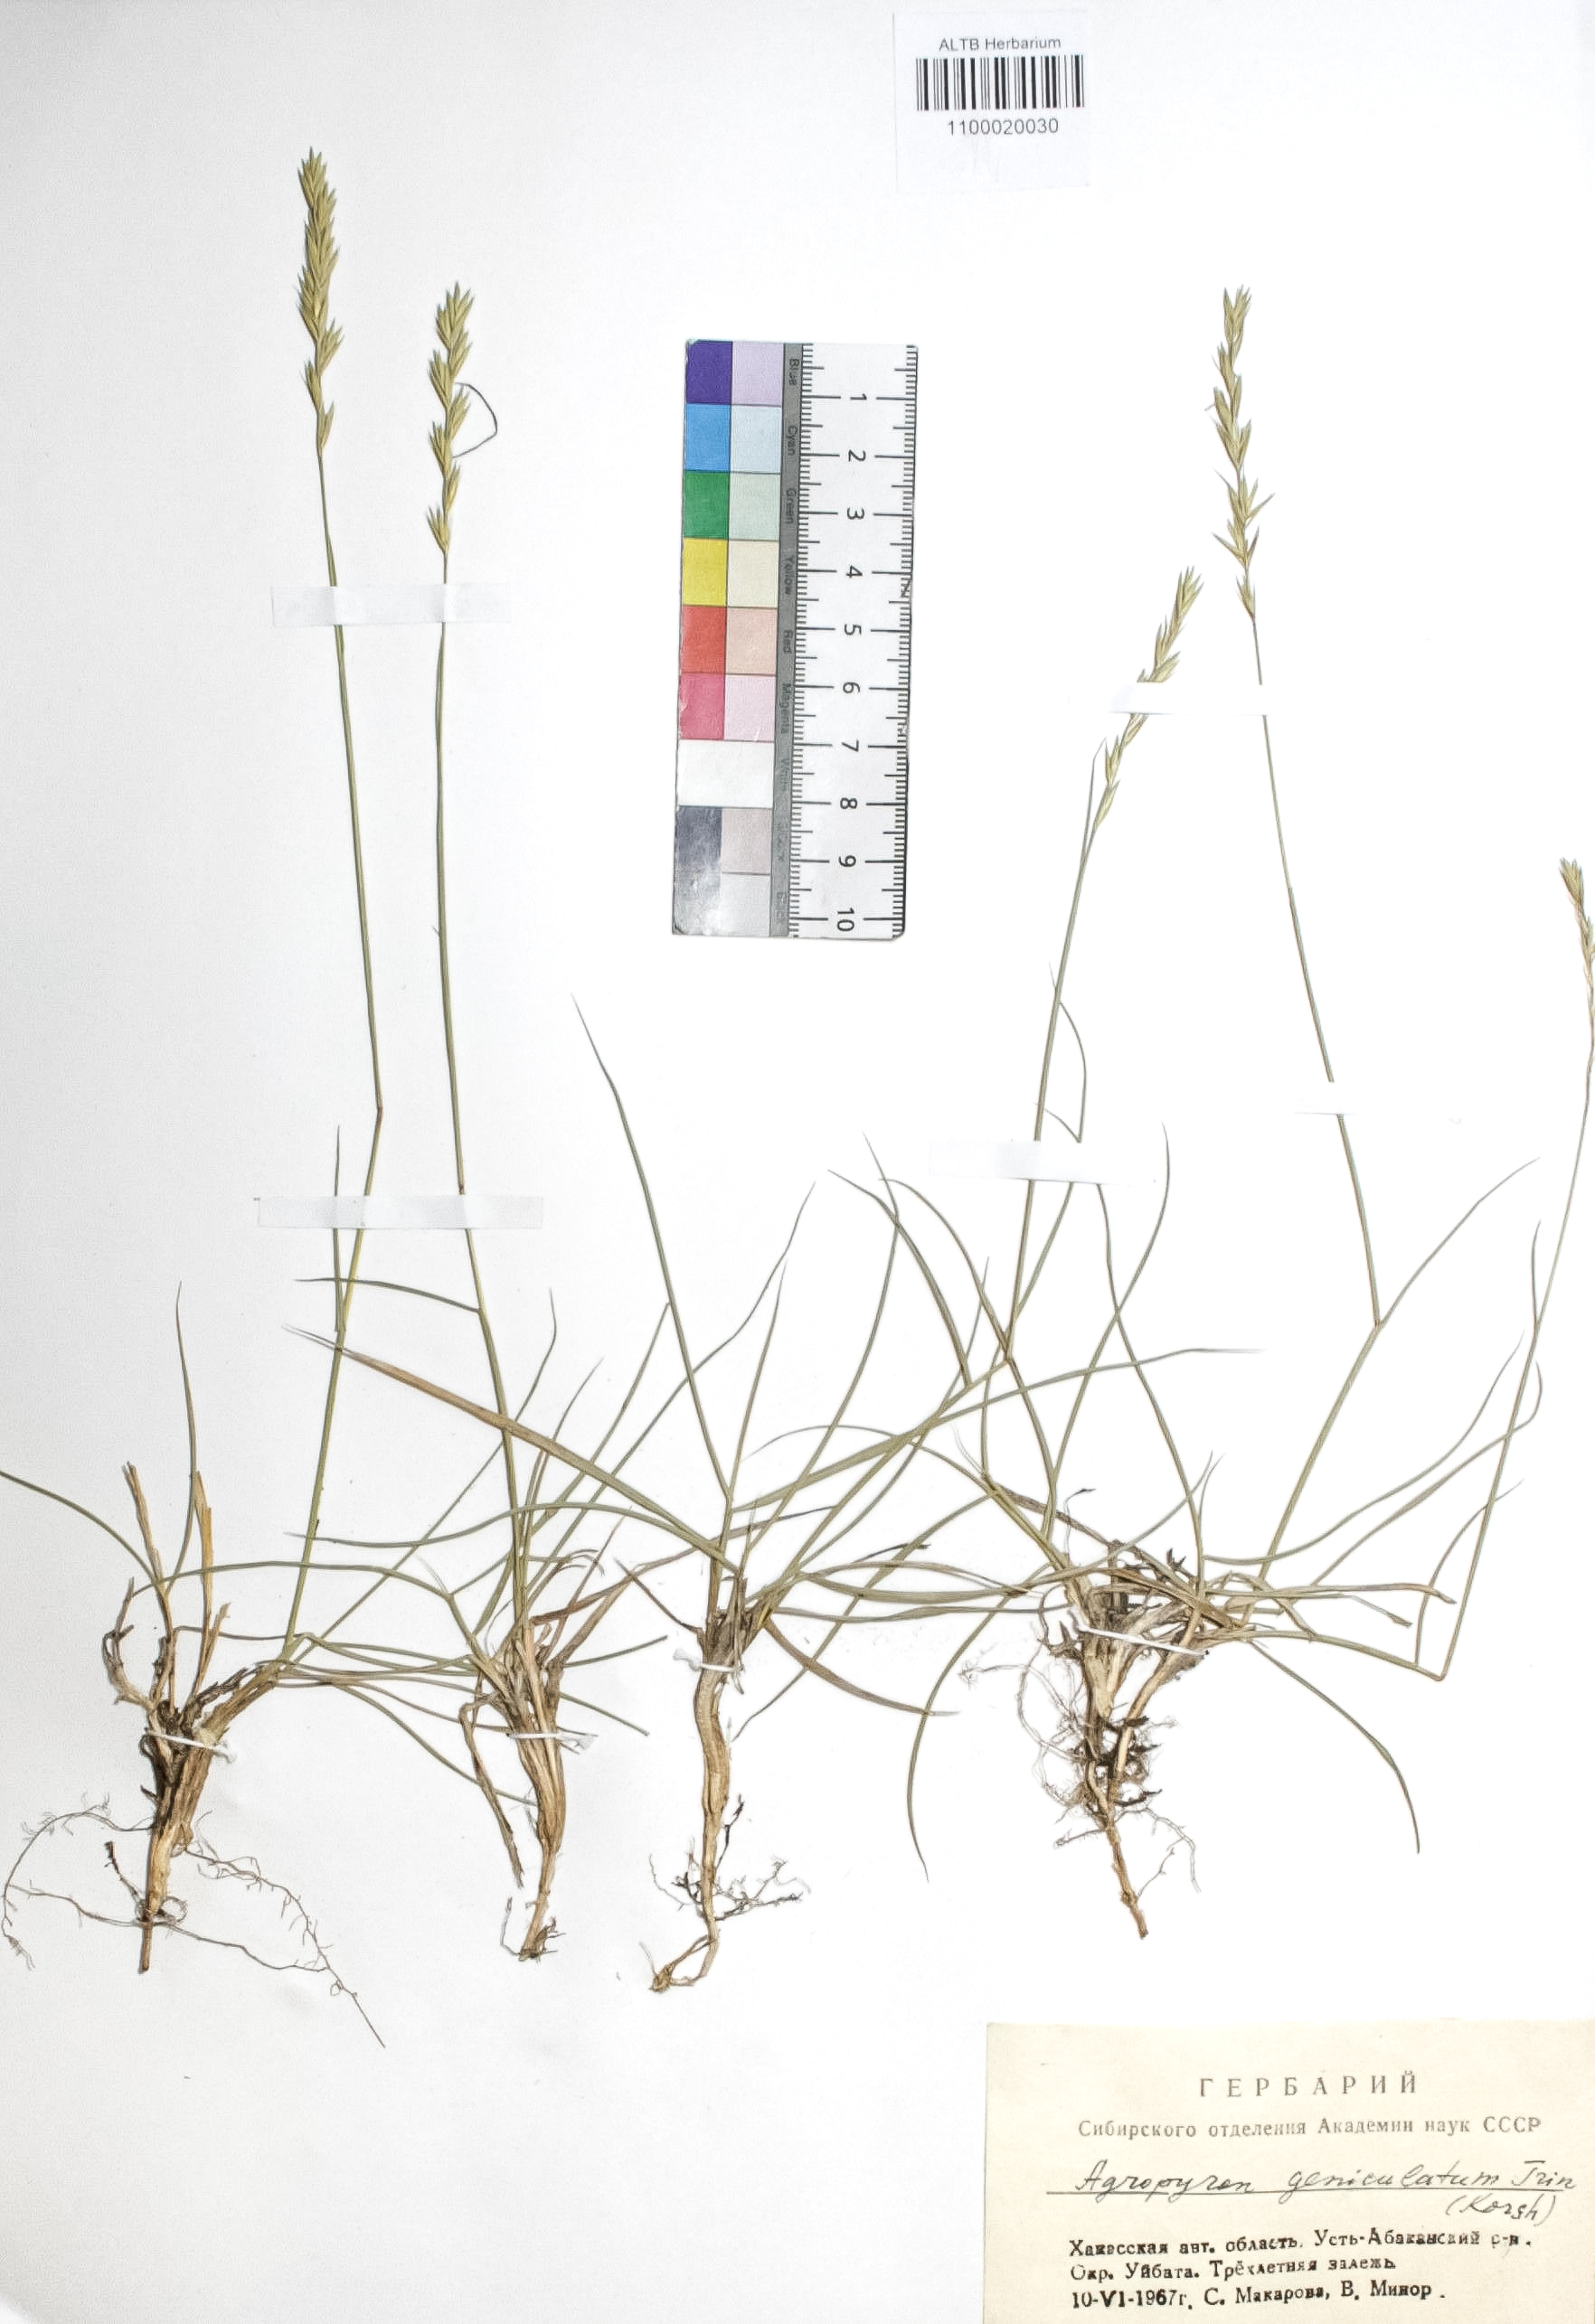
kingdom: Plantae
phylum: Tracheophyta
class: Liliopsida
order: Poales
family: Poaceae
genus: Pseudoroegneria
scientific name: Pseudoroegneria geniculata
